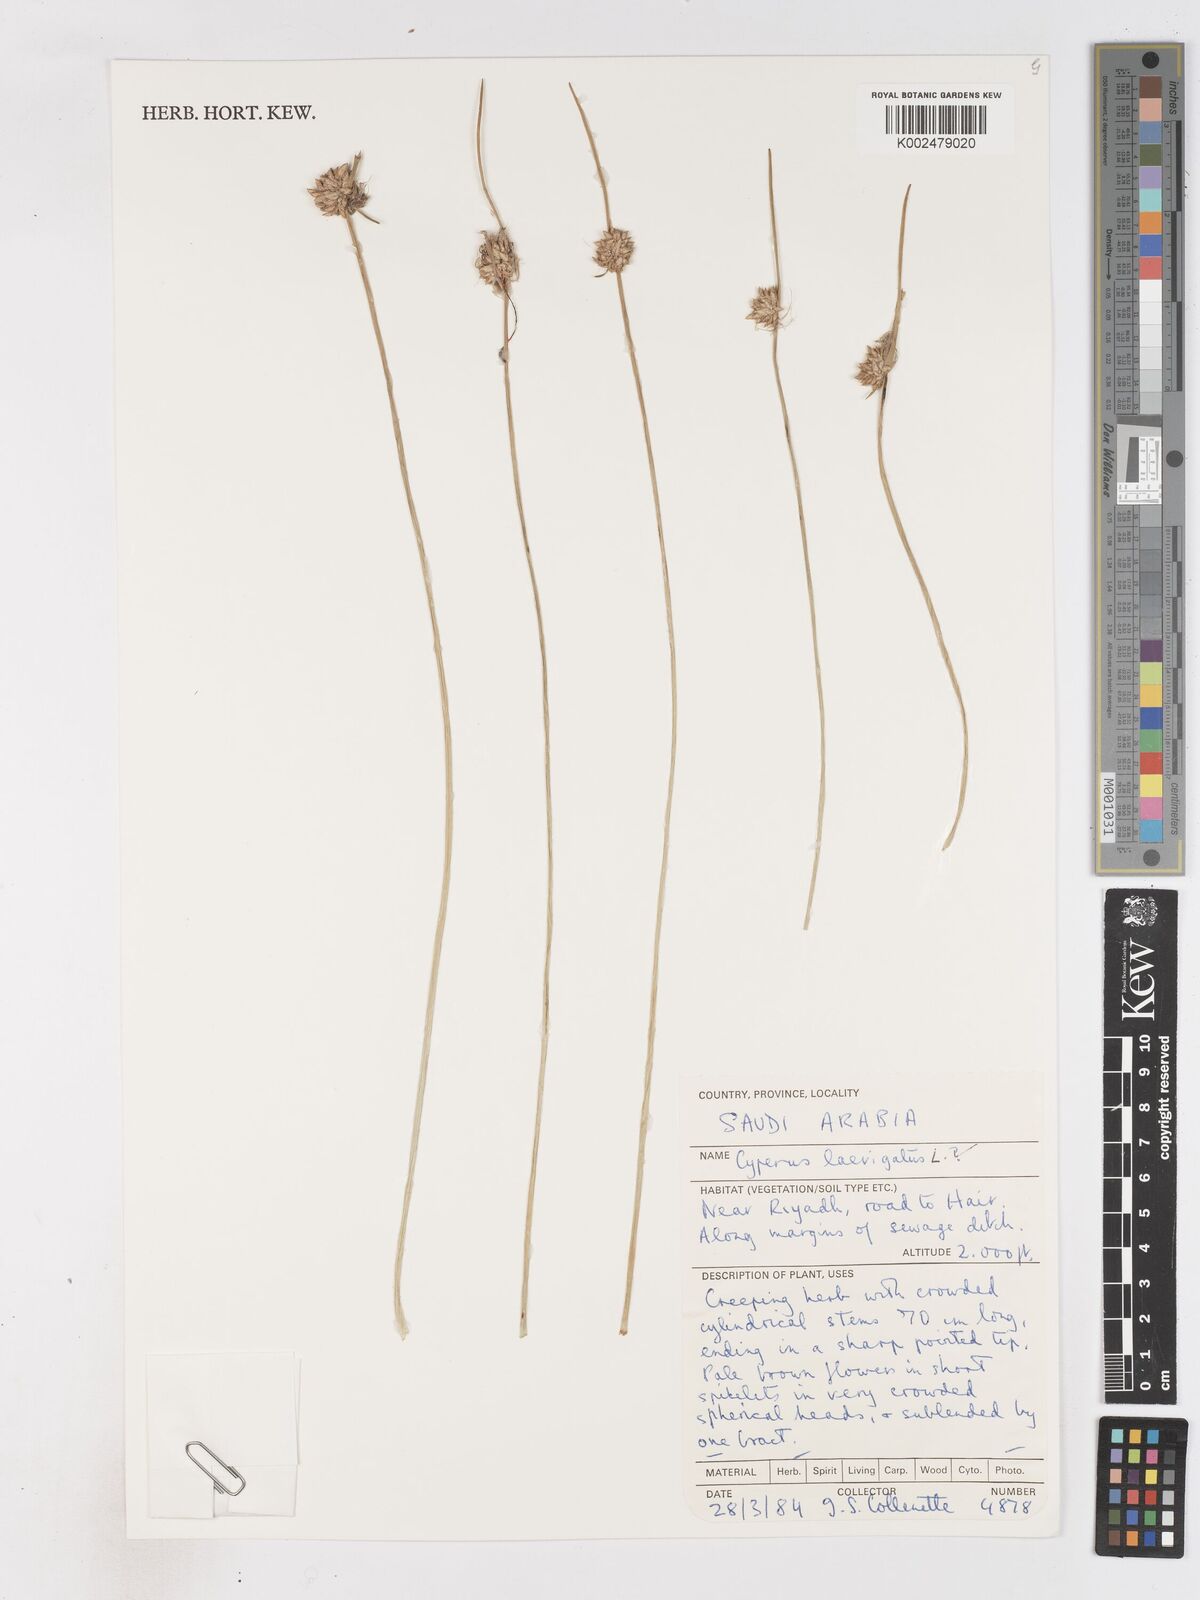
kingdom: Plantae
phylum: Tracheophyta
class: Liliopsida
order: Poales
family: Cyperaceae
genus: Cyperus
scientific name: Cyperus laevigatus
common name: Smooth flat sedge
